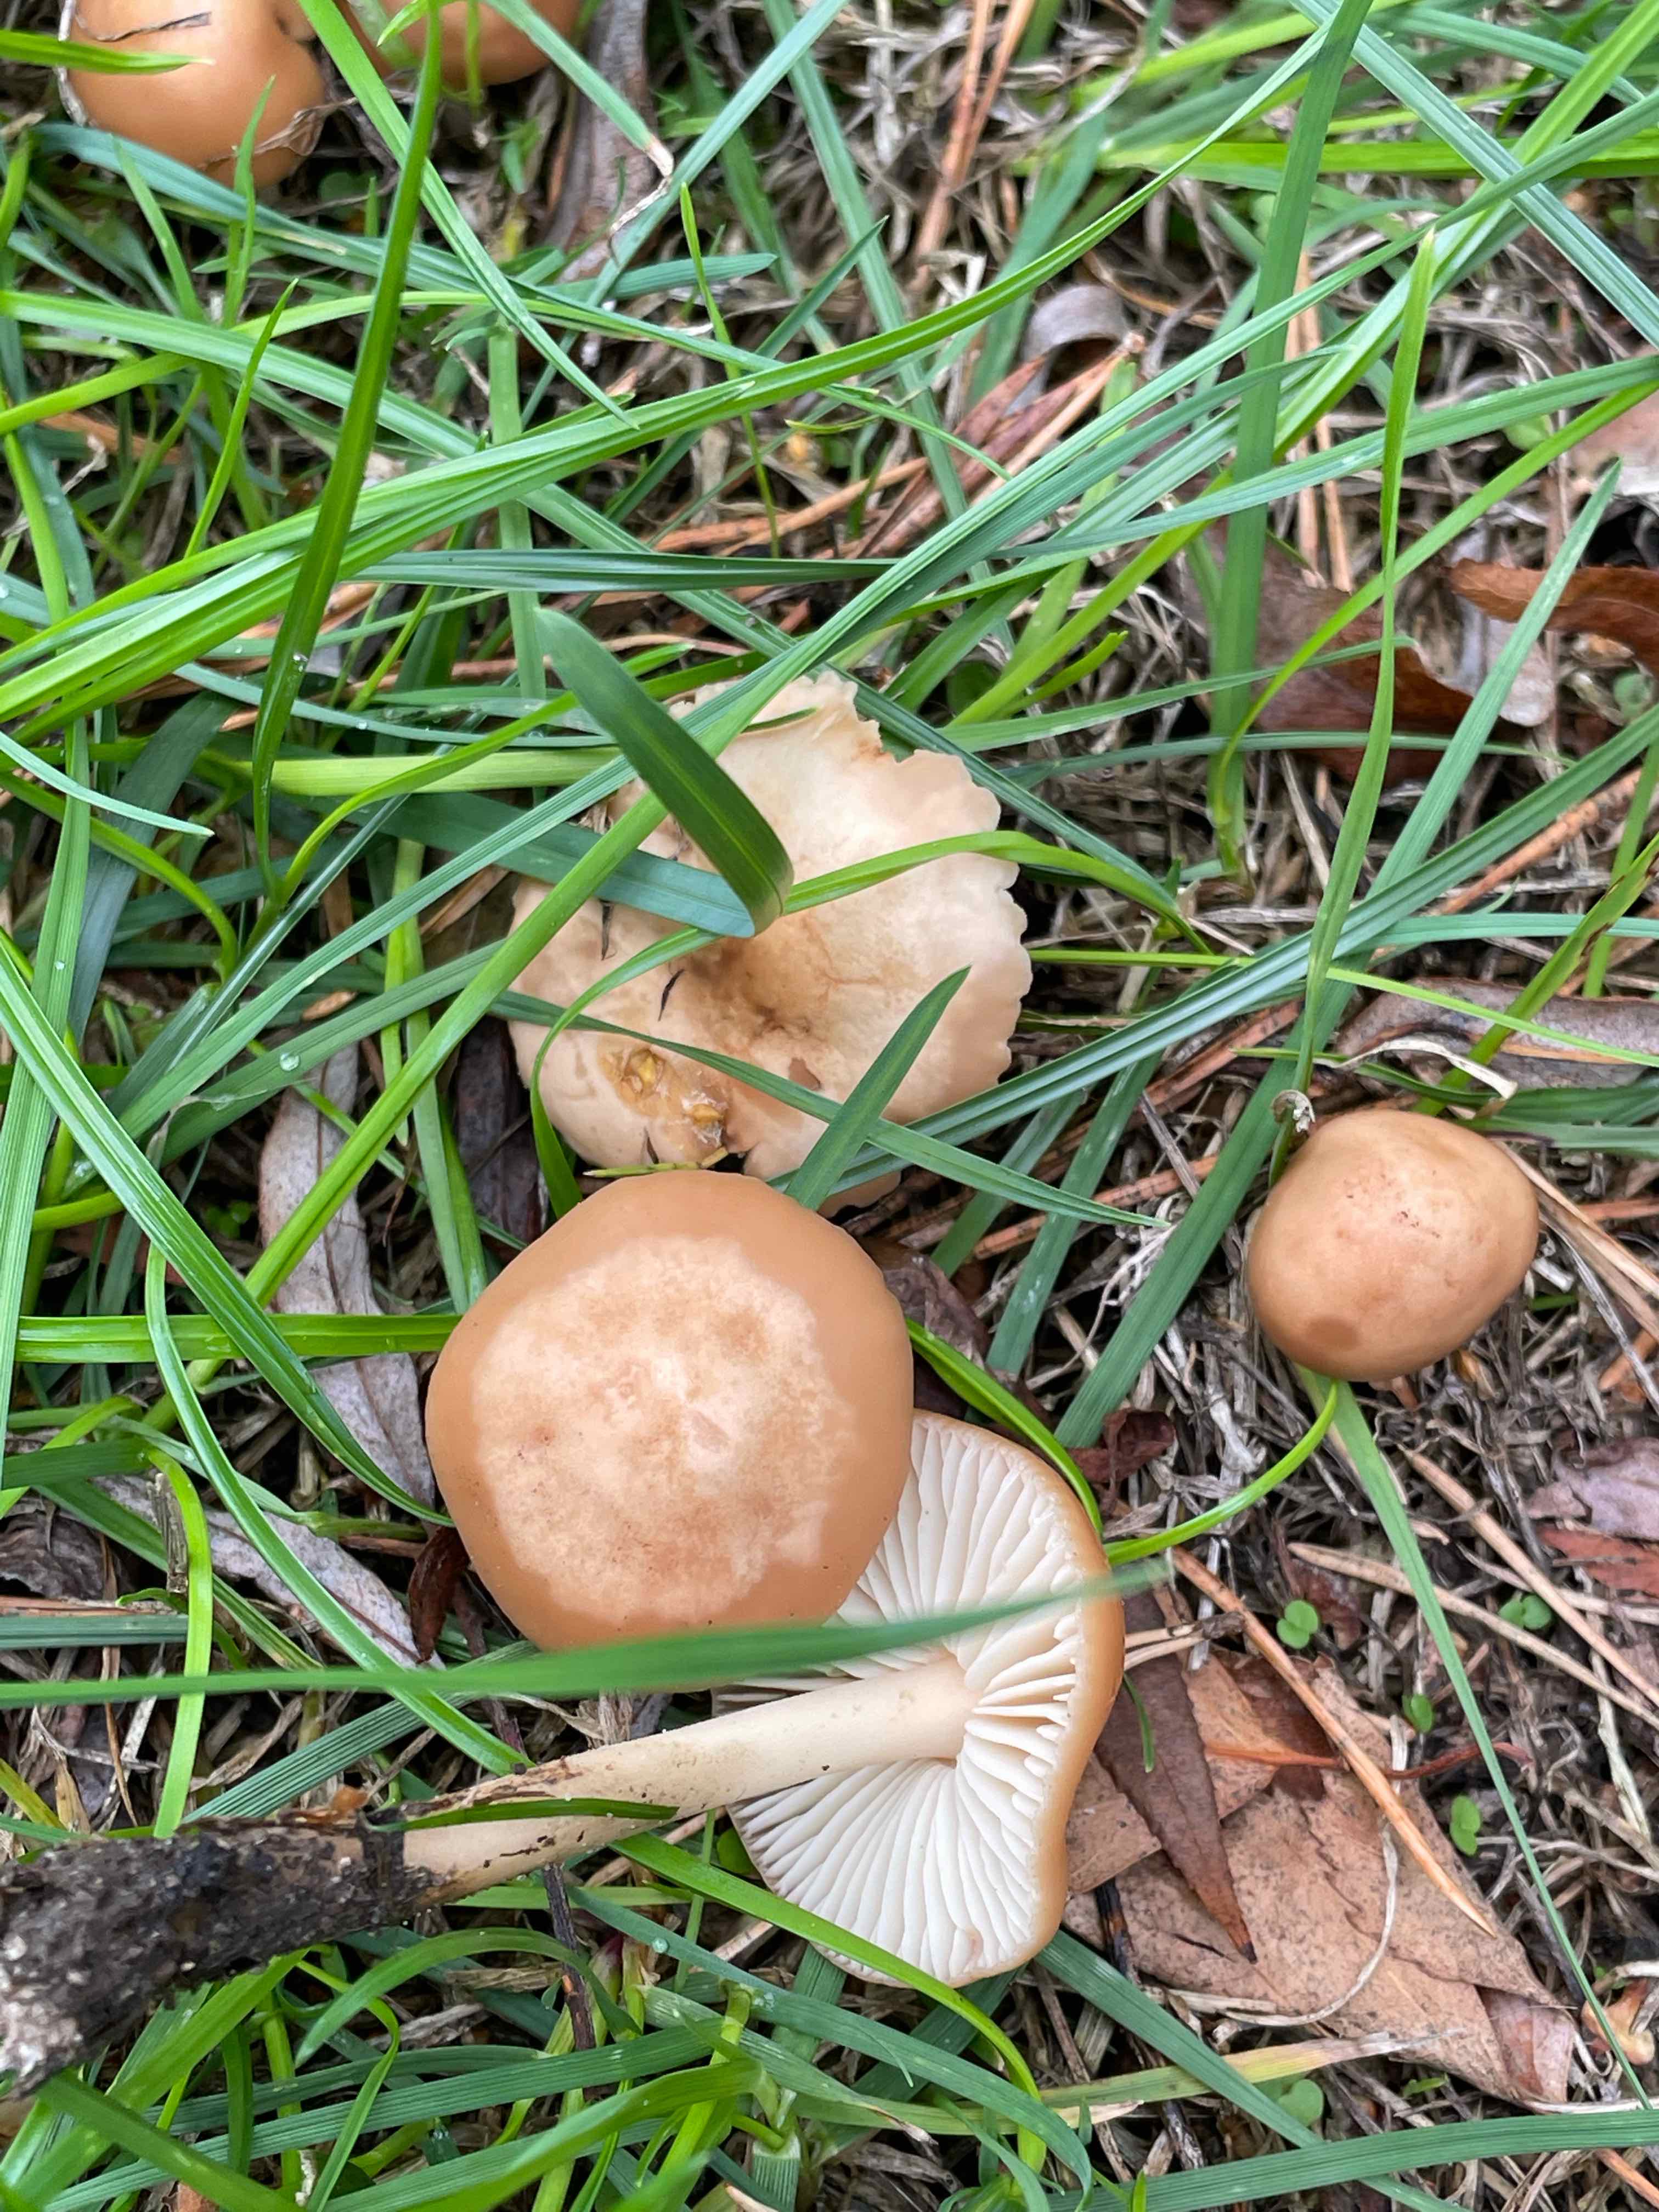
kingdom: Fungi
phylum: Basidiomycota
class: Agaricomycetes
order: Agaricales
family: Marasmiaceae
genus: Marasmius
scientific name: Marasmius oreades
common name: elledans-bruskhat
